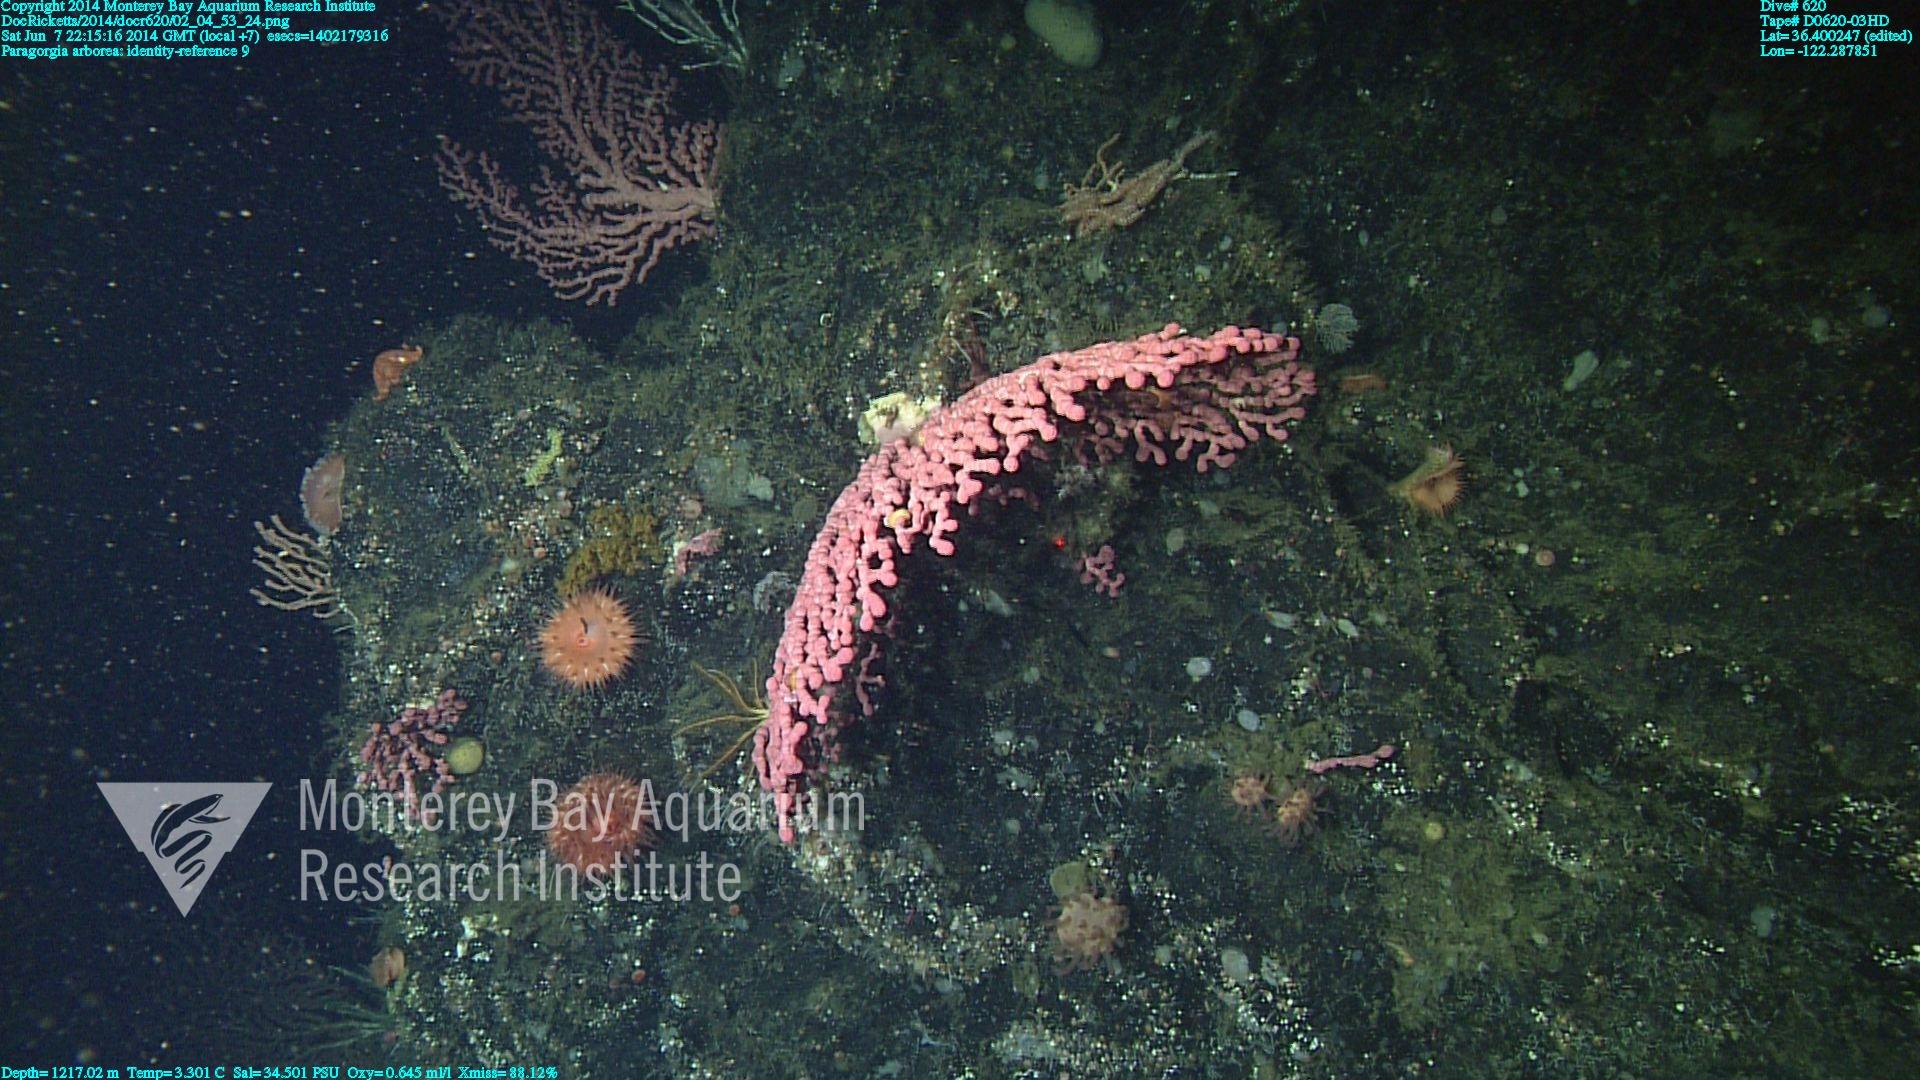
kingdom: Animalia
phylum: Cnidaria
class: Anthozoa
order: Scleralcyonacea
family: Coralliidae
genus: Paragorgia
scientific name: Paragorgia arborea
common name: Bubble gum coral
